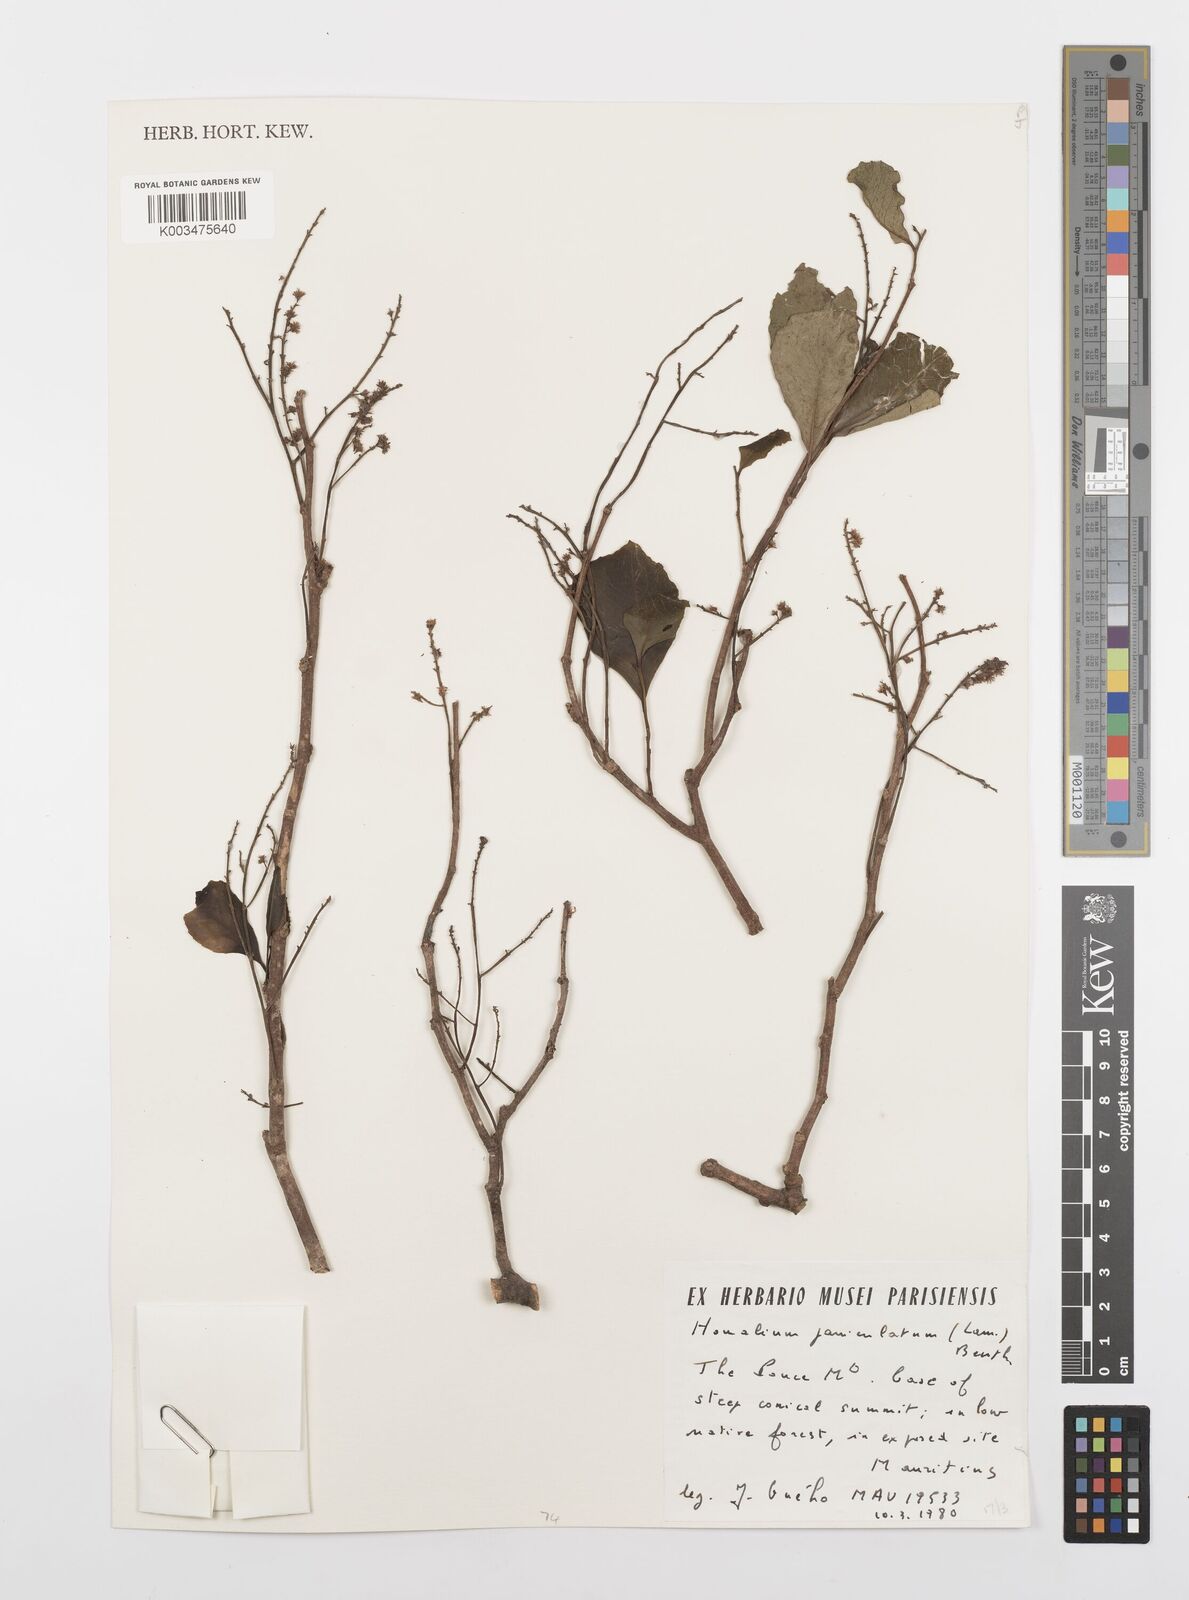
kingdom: Plantae
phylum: Tracheophyta
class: Magnoliopsida
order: Malpighiales
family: Salicaceae
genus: Homalium
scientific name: Homalium erianthum
